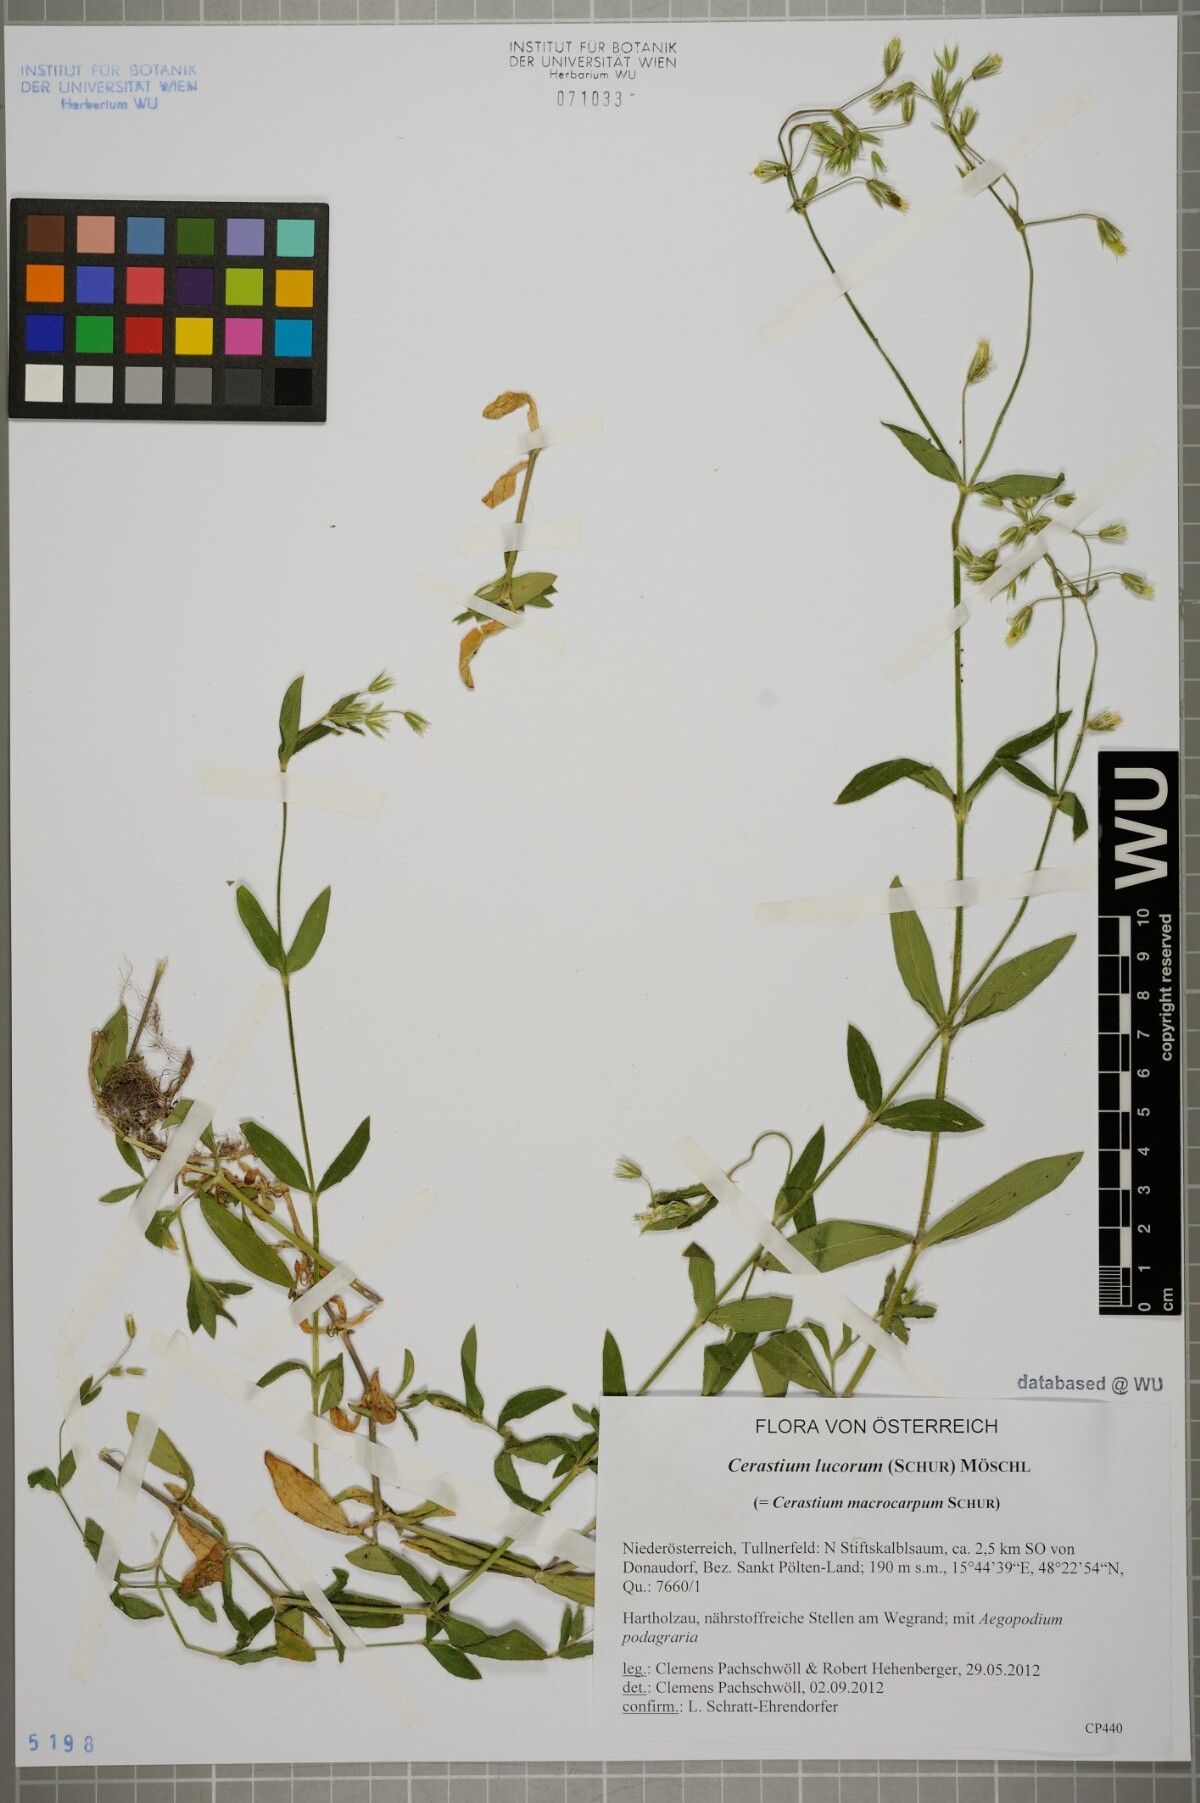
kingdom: Plantae
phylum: Tracheophyta
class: Magnoliopsida
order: Caryophyllales
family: Caryophyllaceae
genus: Cerastium
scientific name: Cerastium lucorum
